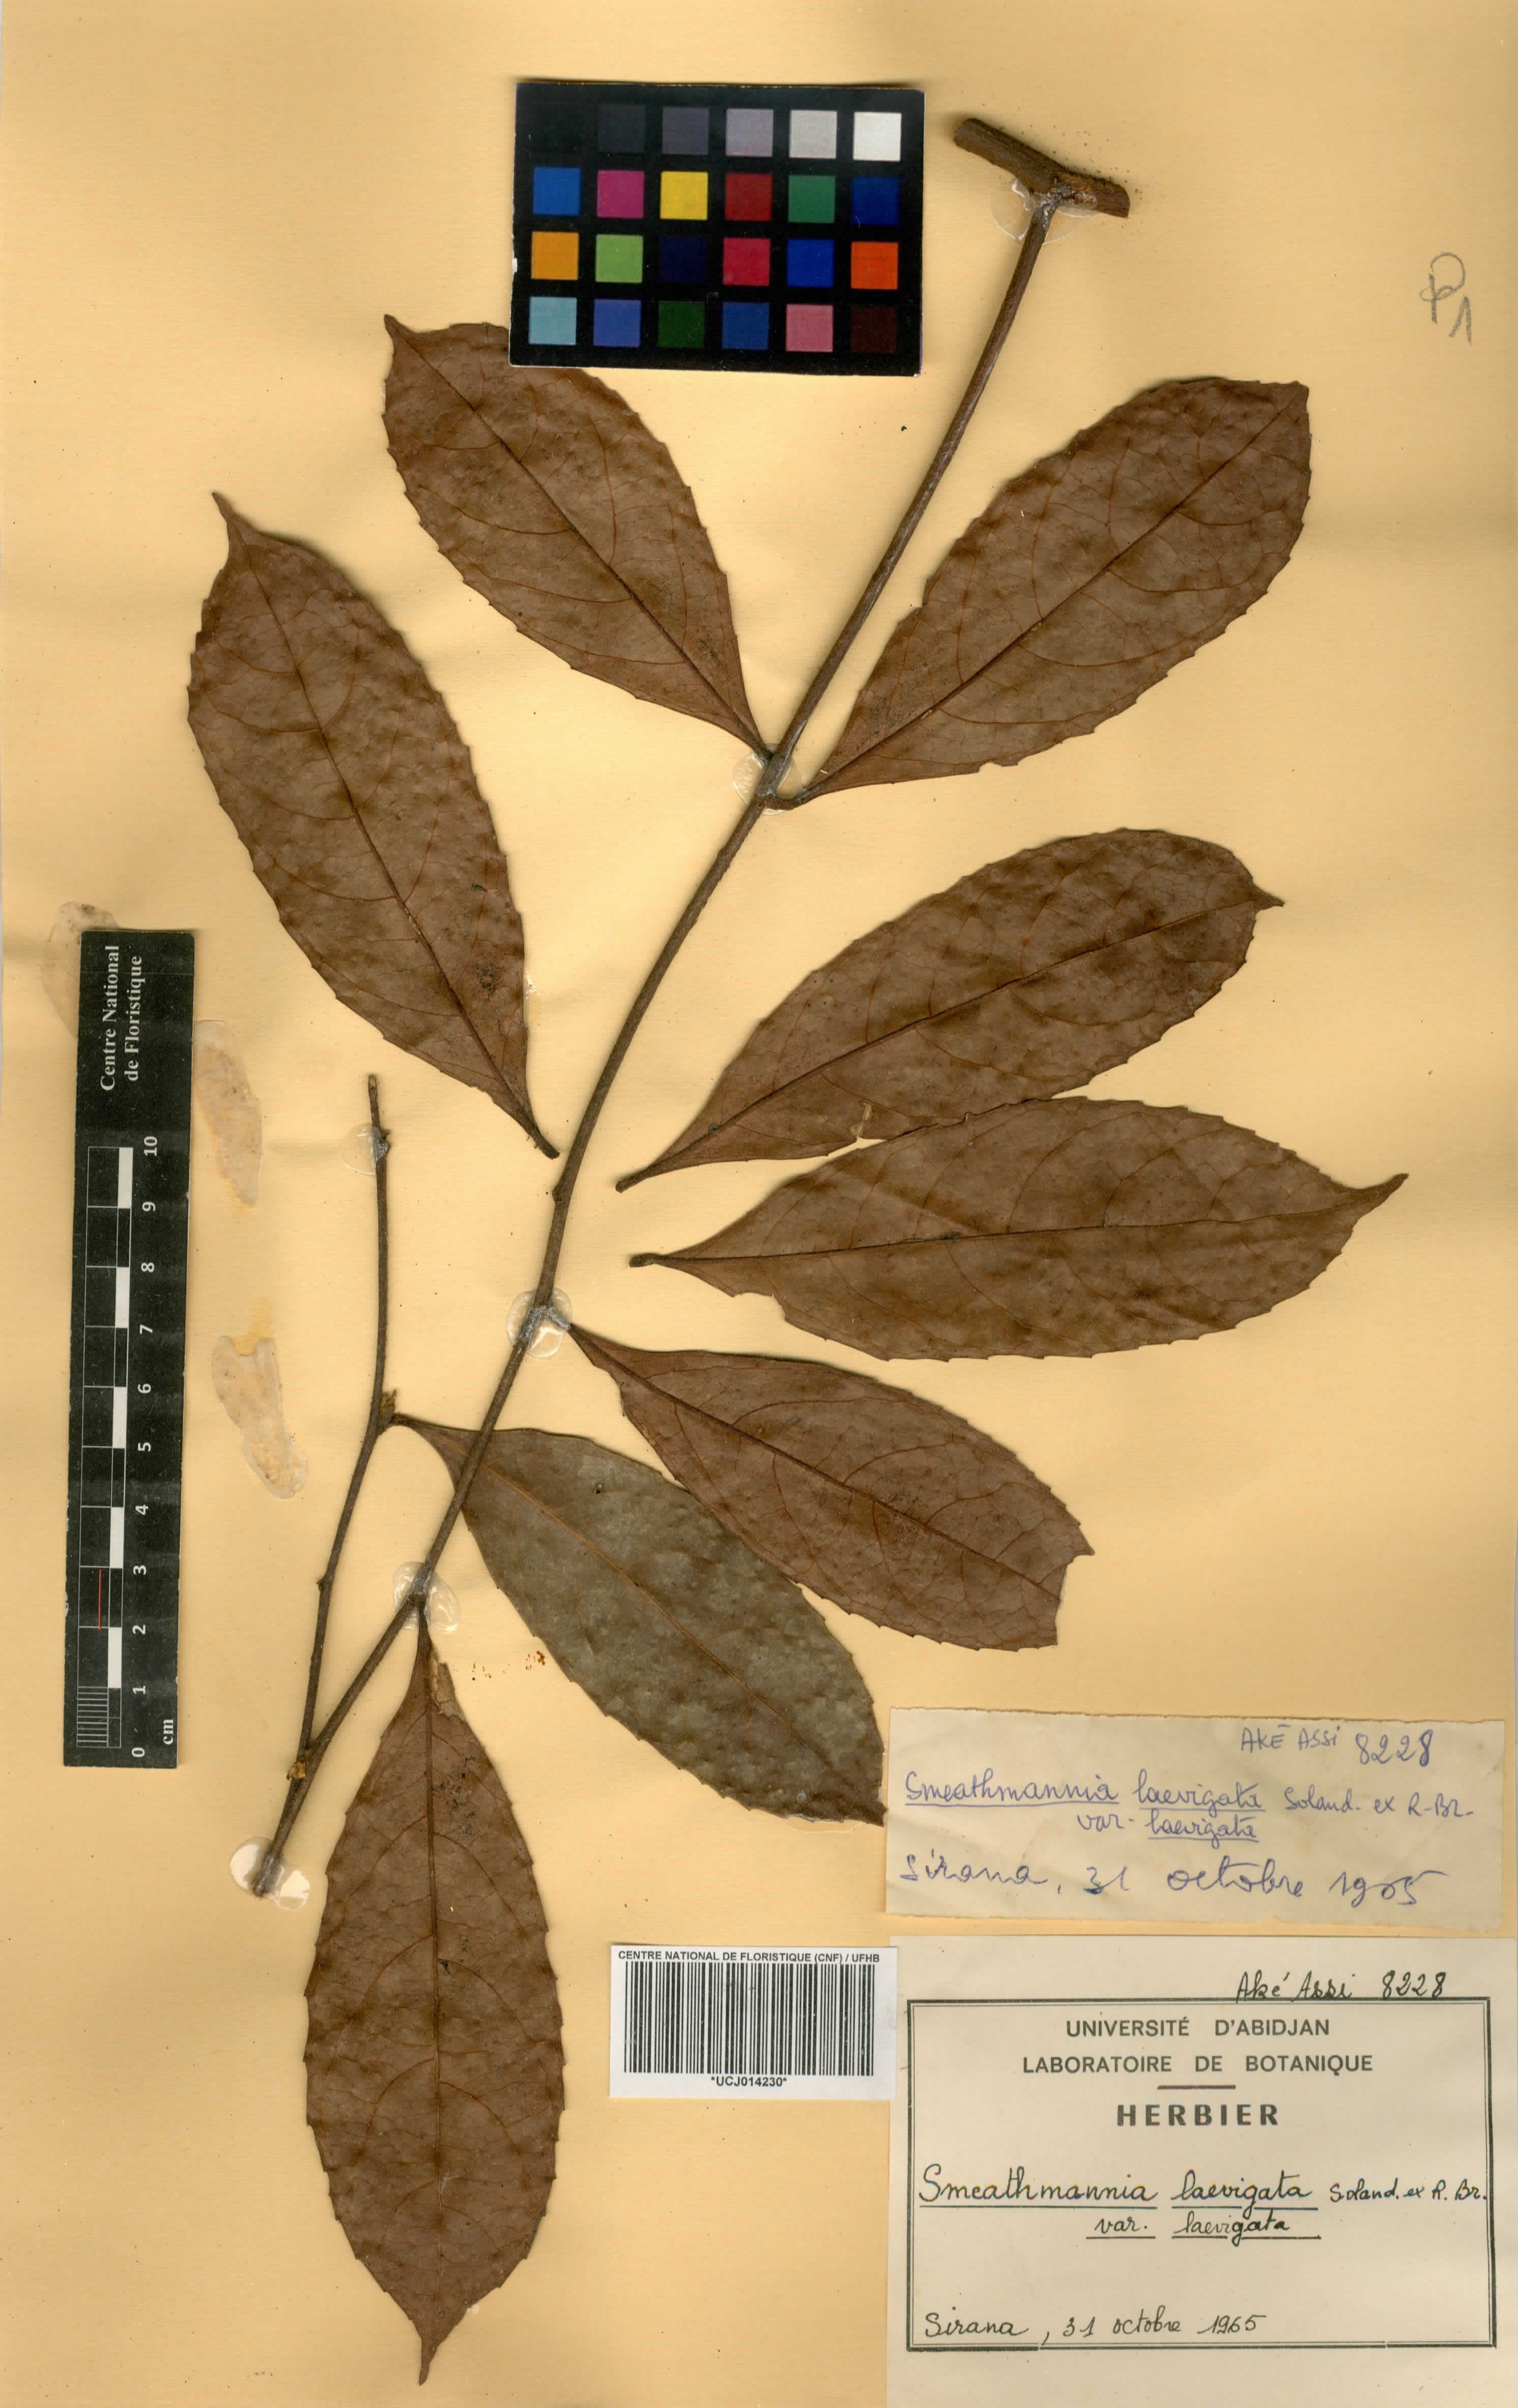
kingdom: Plantae
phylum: Tracheophyta
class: Magnoliopsida
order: Malpighiales
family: Passifloraceae
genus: Smeathmannia
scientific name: Smeathmannia laevigata
